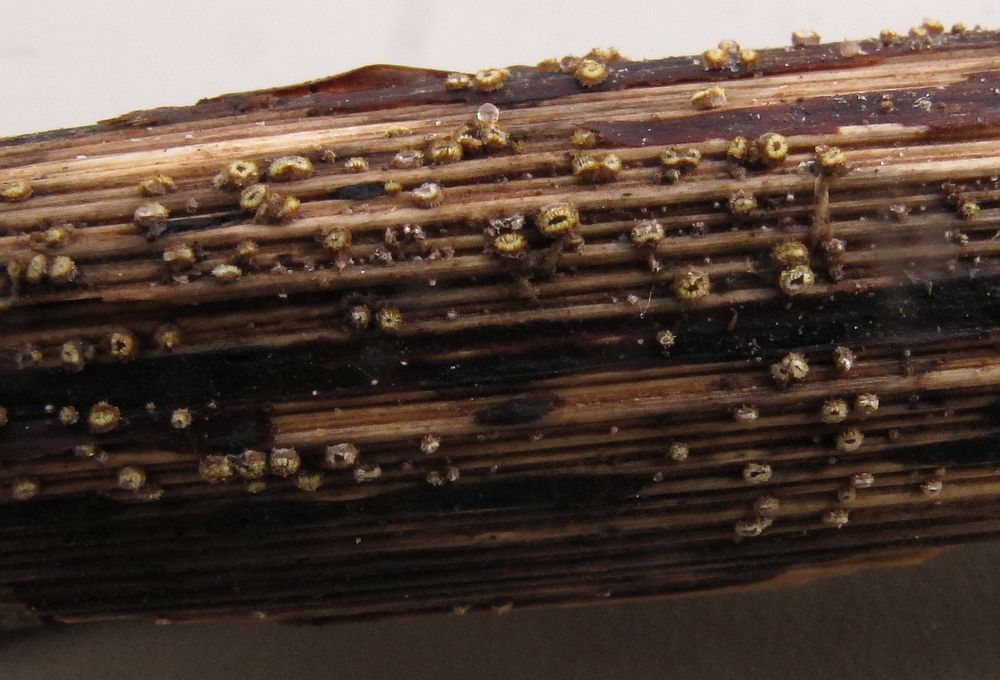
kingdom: Fungi
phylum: Ascomycota
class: Leotiomycetes
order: Helotiales
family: Lachnaceae
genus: Lachnum
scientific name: Lachnum sulphureum
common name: svovlhåret frynseskive
